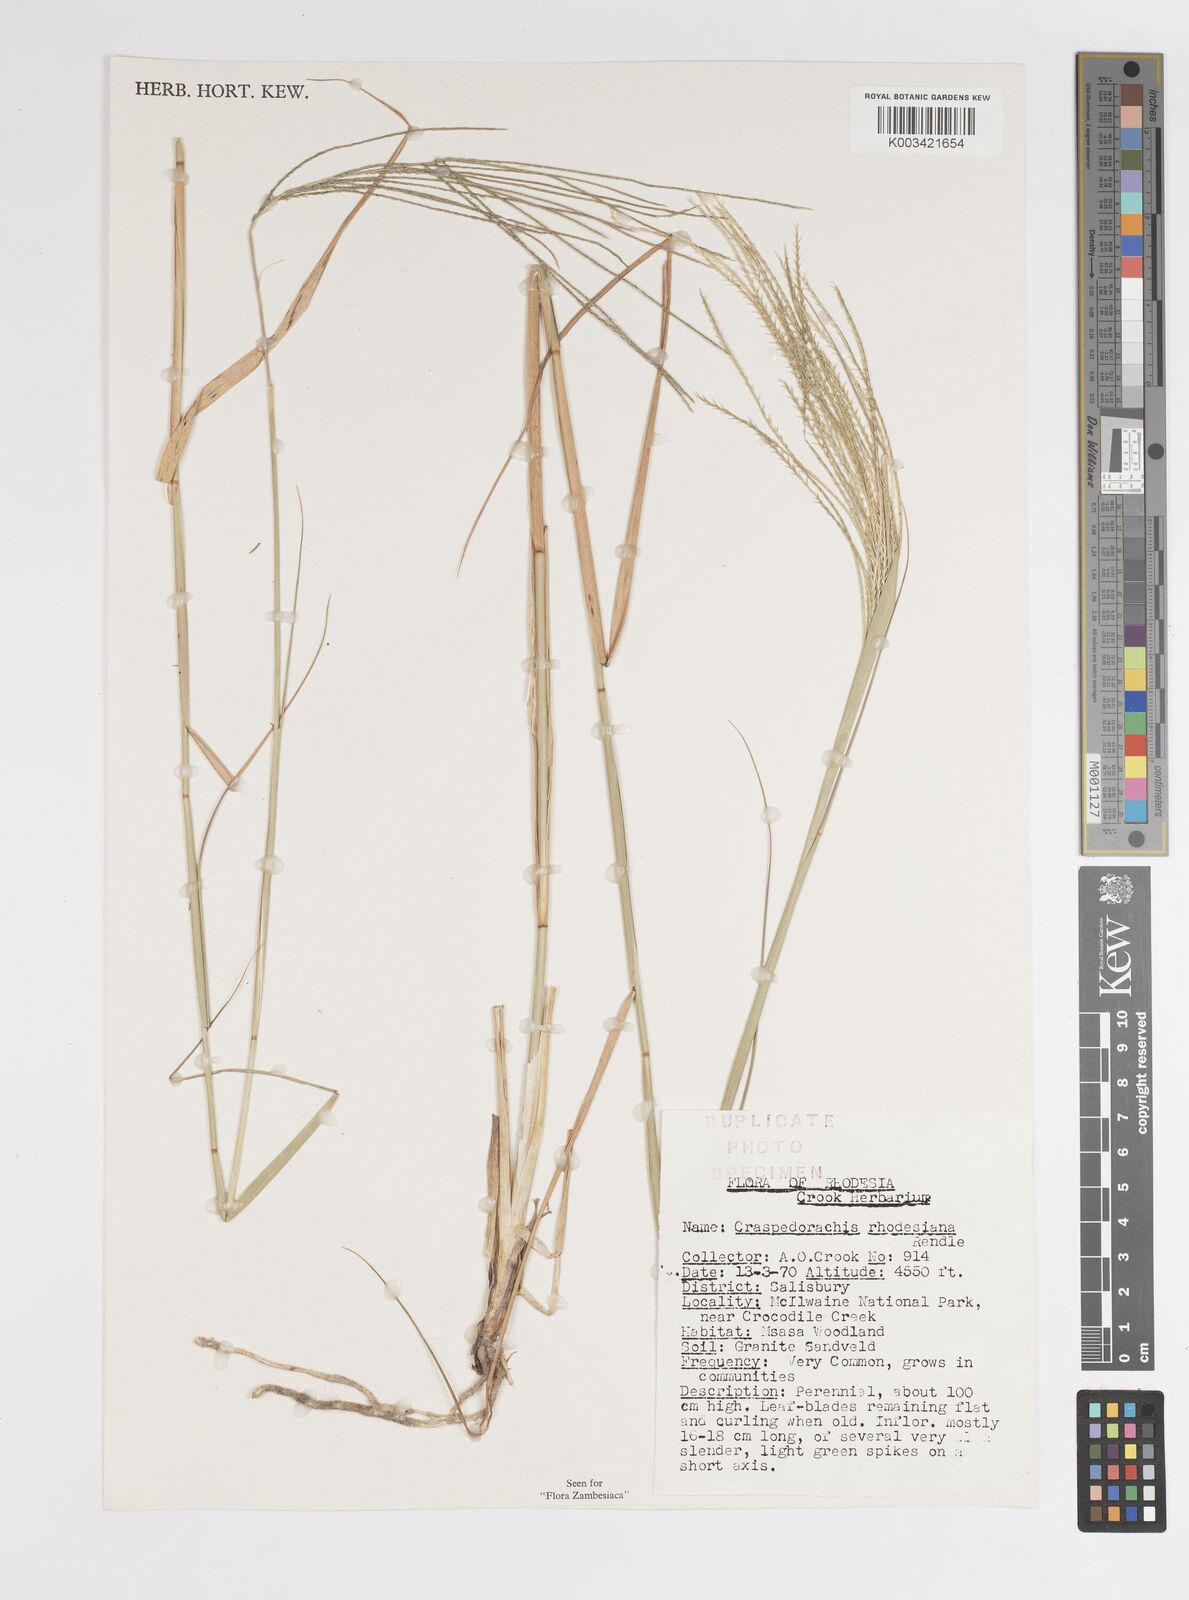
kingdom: Plantae
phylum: Tracheophyta
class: Liliopsida
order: Poales
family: Poaceae
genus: Craspedorhachis
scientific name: Craspedorhachis rhodesiana
